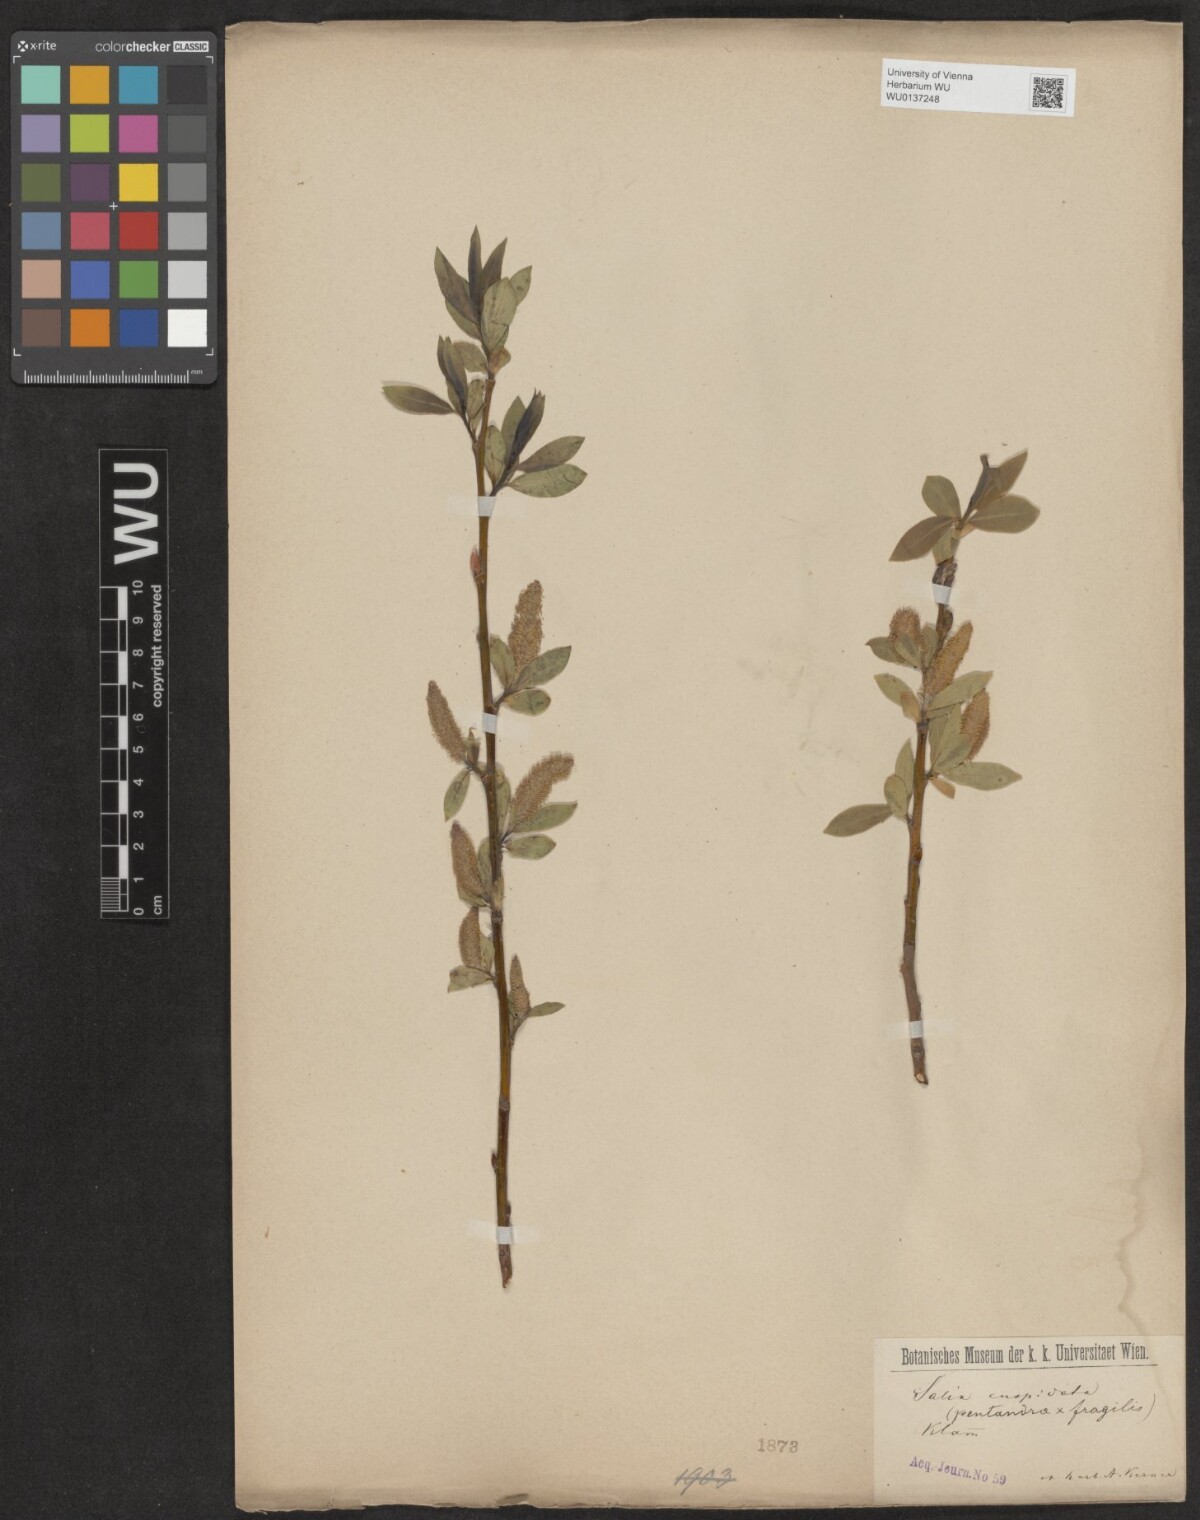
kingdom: Plantae
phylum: Tracheophyta
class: Magnoliopsida
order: Malpighiales
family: Salicaceae
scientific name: Salicaceae
